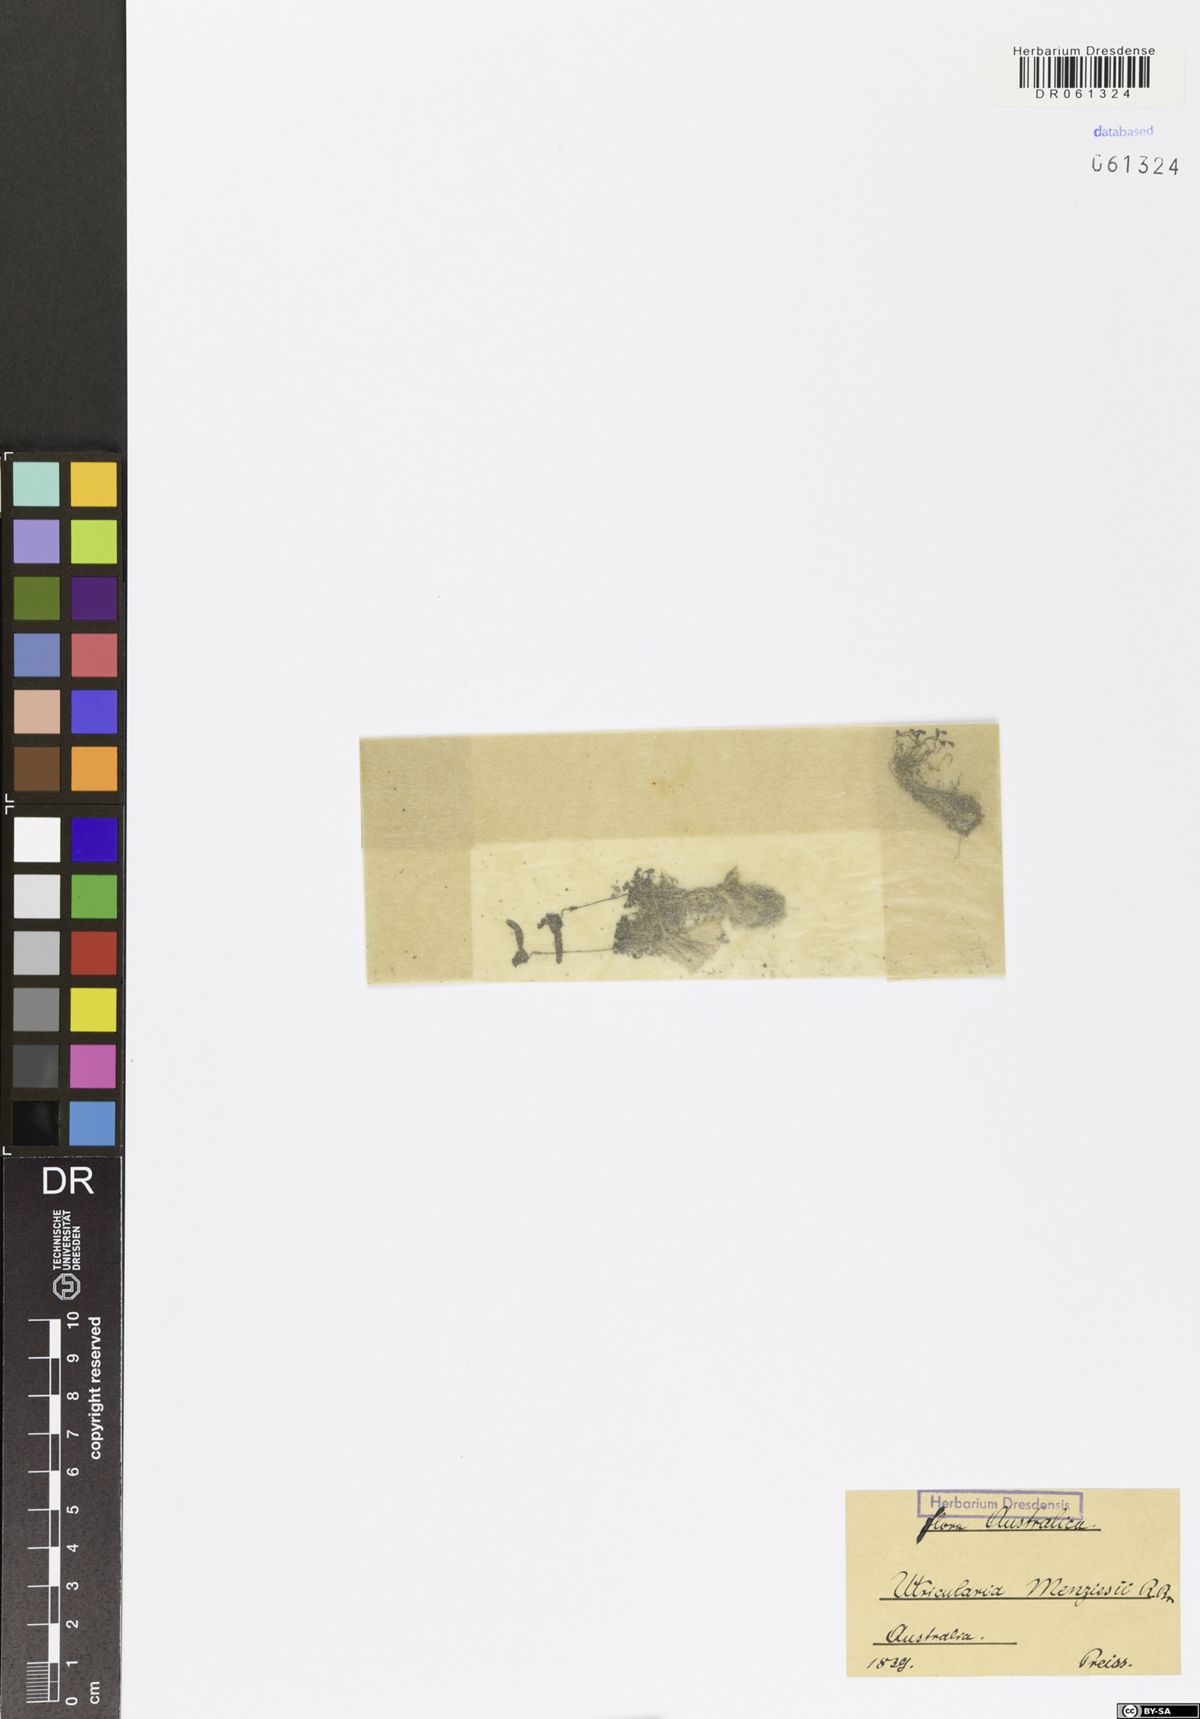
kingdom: Plantae
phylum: Tracheophyta
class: Magnoliopsida
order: Lamiales
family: Lentibulariaceae
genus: Utricularia
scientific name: Utricularia menziesii
